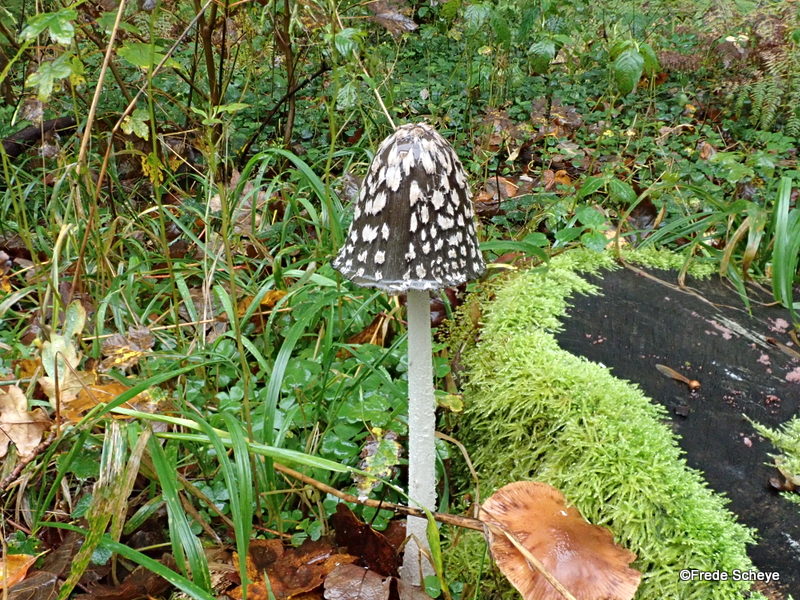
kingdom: Fungi
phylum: Basidiomycota
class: Agaricomycetes
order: Agaricales
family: Psathyrellaceae
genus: Coprinopsis
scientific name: Coprinopsis picacea
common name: skade-blækhat
